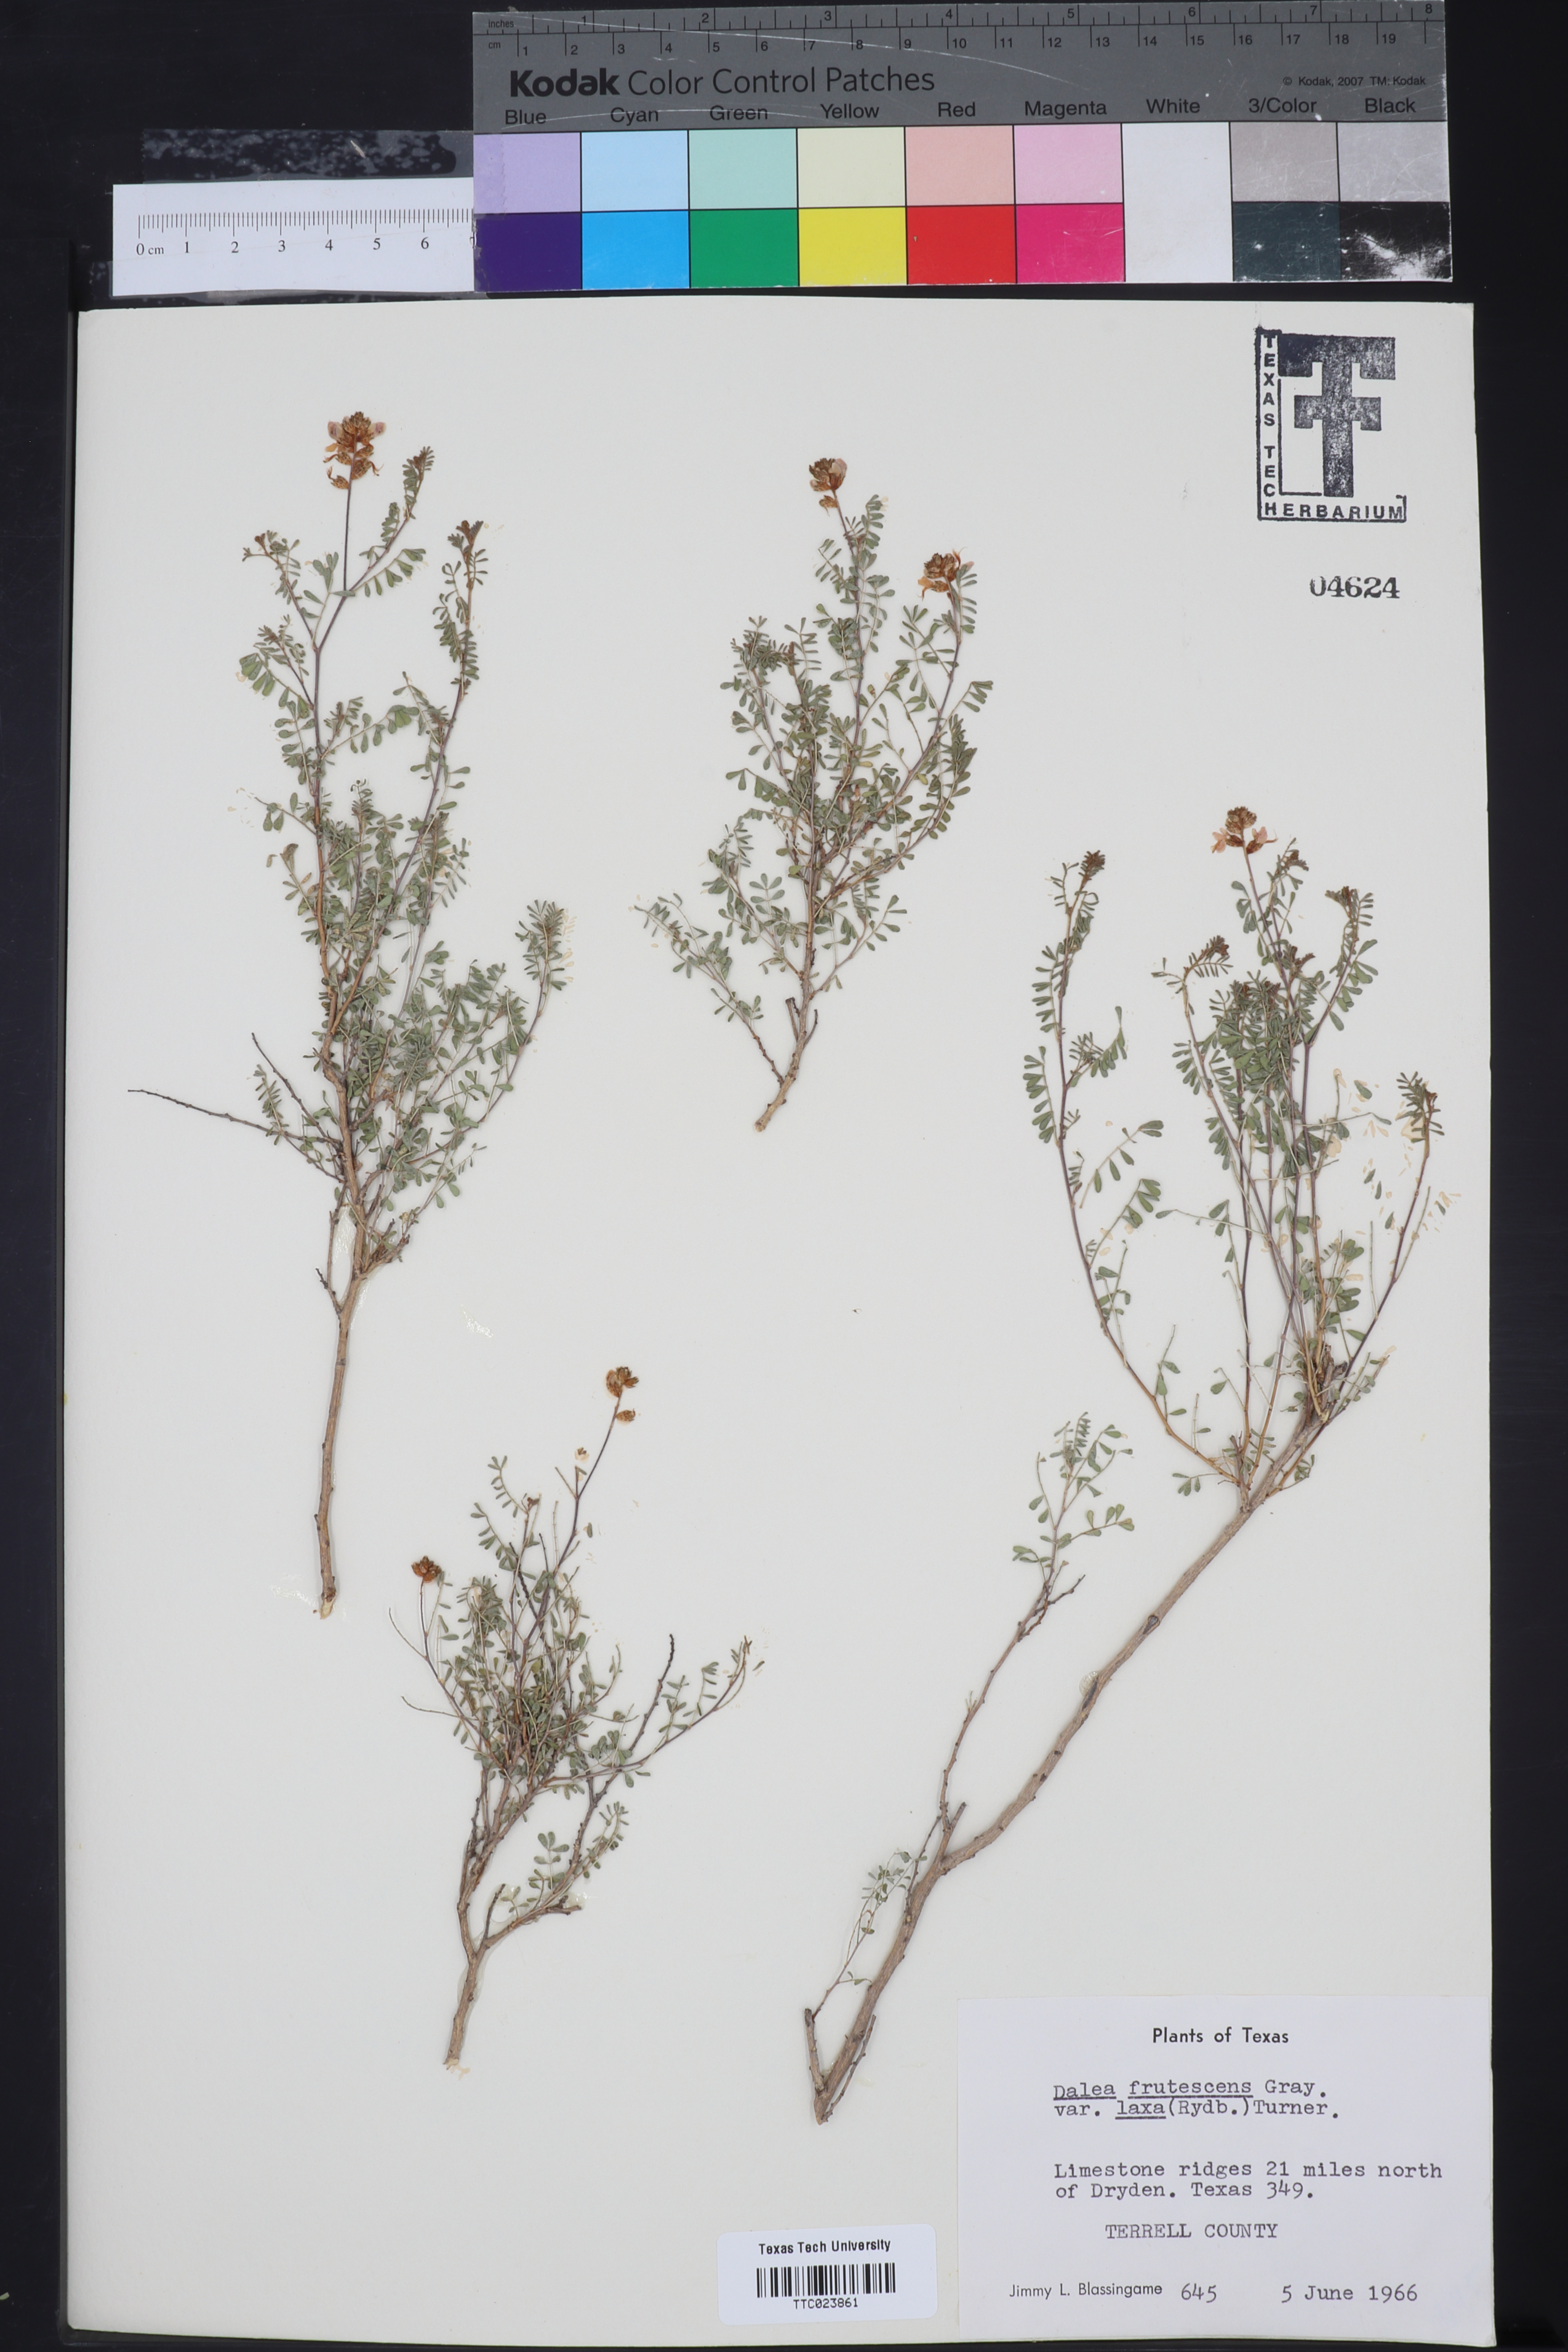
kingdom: Plantae
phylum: Tracheophyta
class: Magnoliopsida
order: Fabales
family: Fabaceae
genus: Dalea
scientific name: Dalea frutescens
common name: Black dalea
